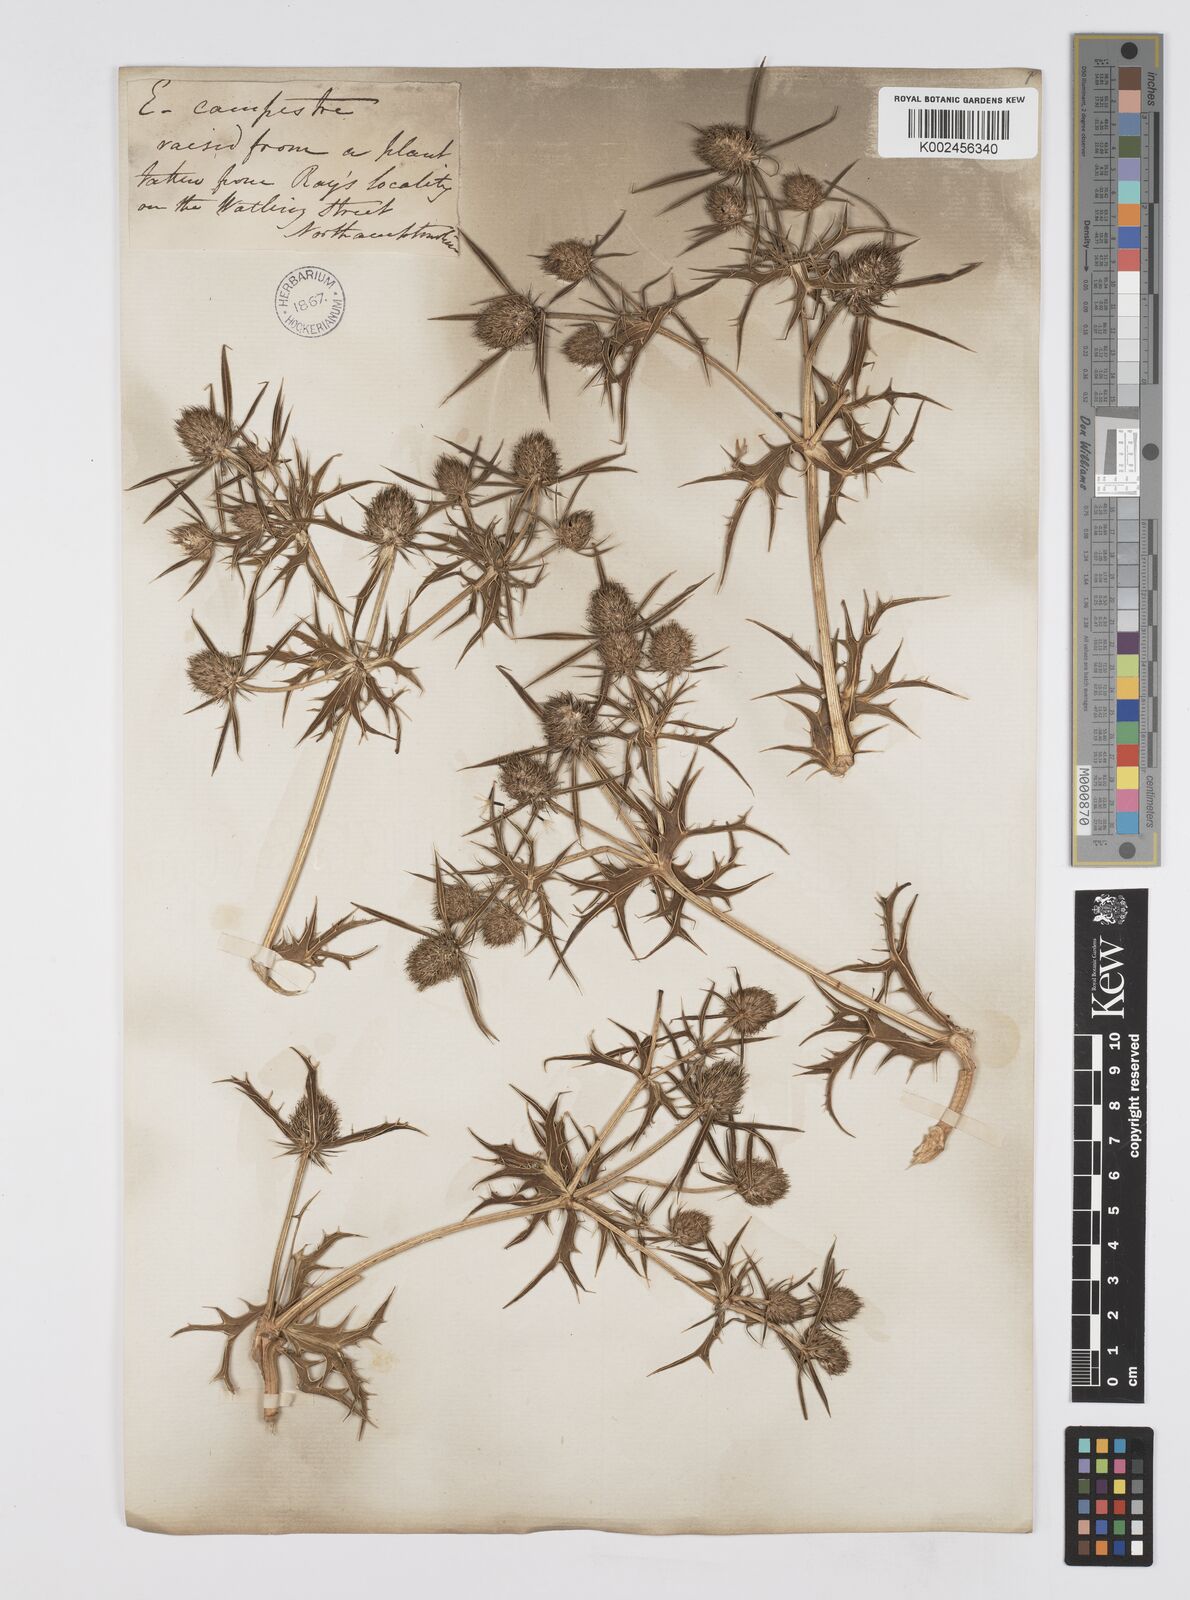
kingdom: Plantae
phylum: Tracheophyta
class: Magnoliopsida
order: Apiales
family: Apiaceae
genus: Eryngium
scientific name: Eryngium campestre
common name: Field eryngo
